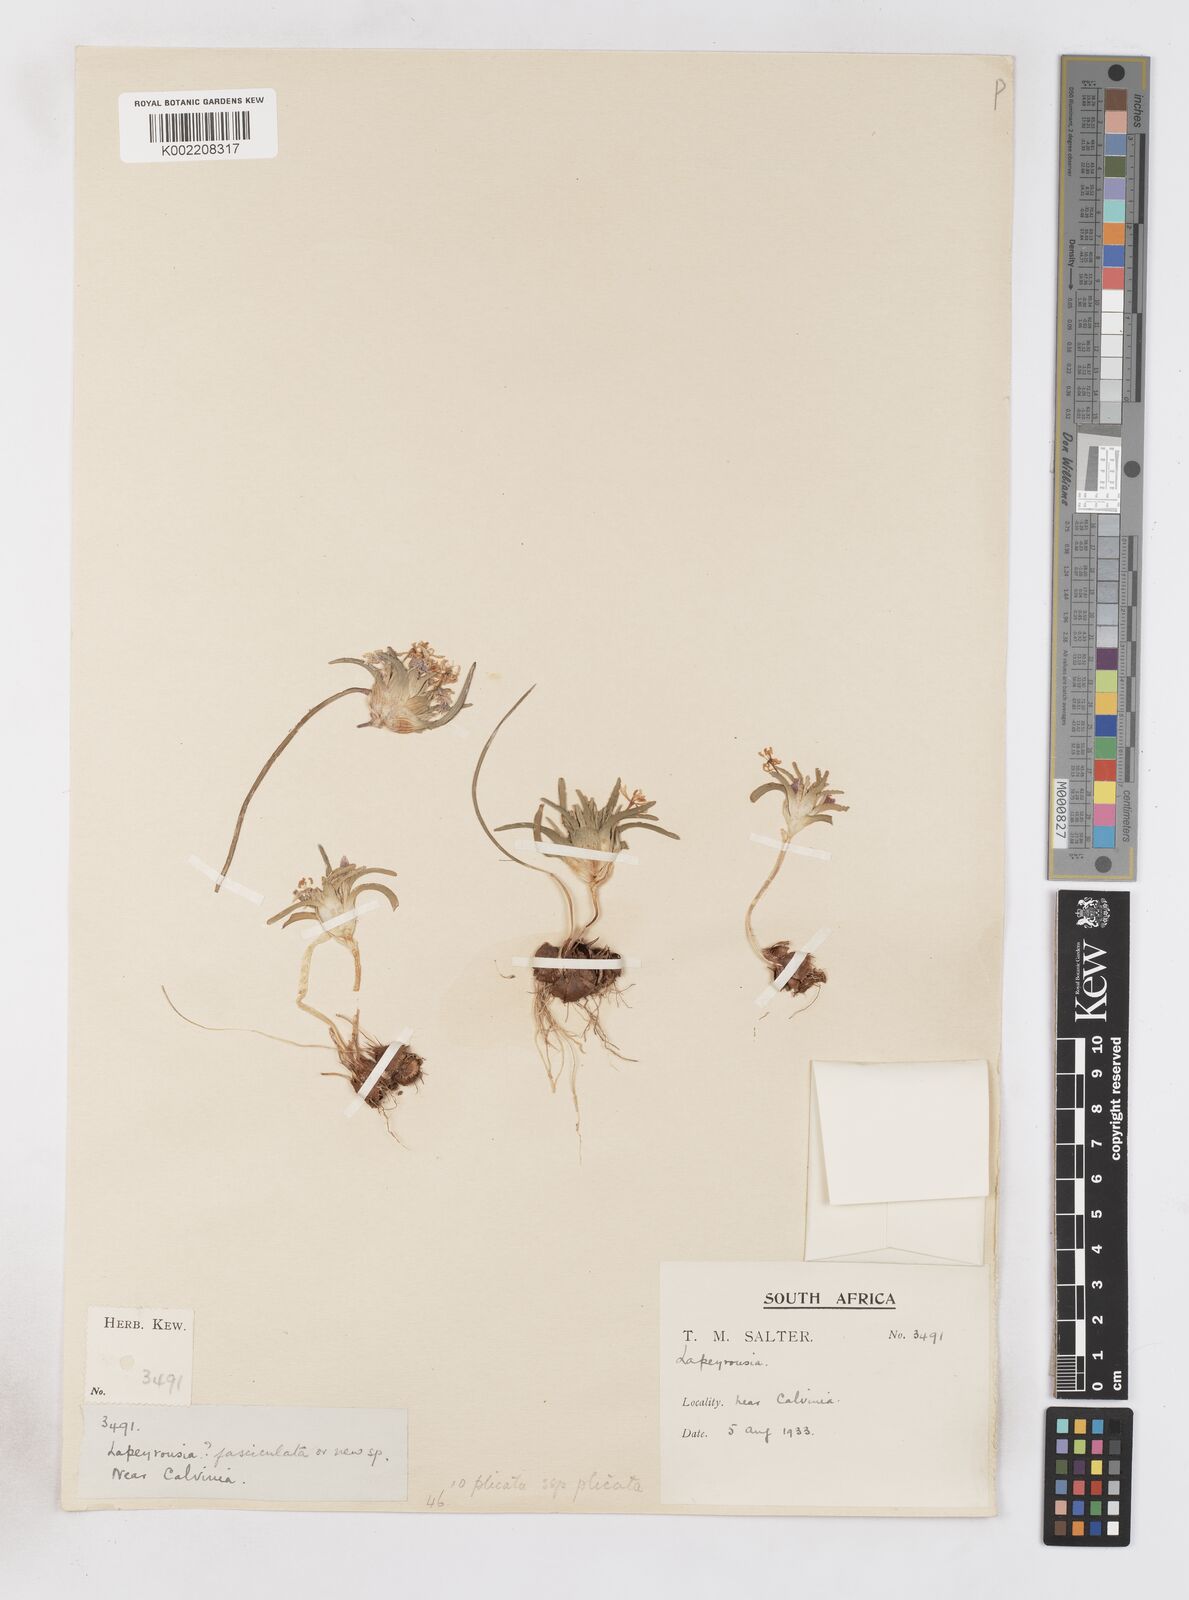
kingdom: Plantae
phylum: Tracheophyta
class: Liliopsida
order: Asparagales
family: Iridaceae
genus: Lapeirousia
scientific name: Lapeirousia plicata
